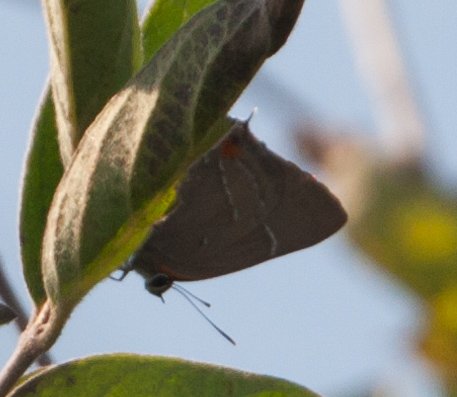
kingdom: Animalia
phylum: Arthropoda
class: Insecta
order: Lepidoptera
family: Lycaenidae
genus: Parrhasius
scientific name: Parrhasius m-album
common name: White-m Hairstreak
